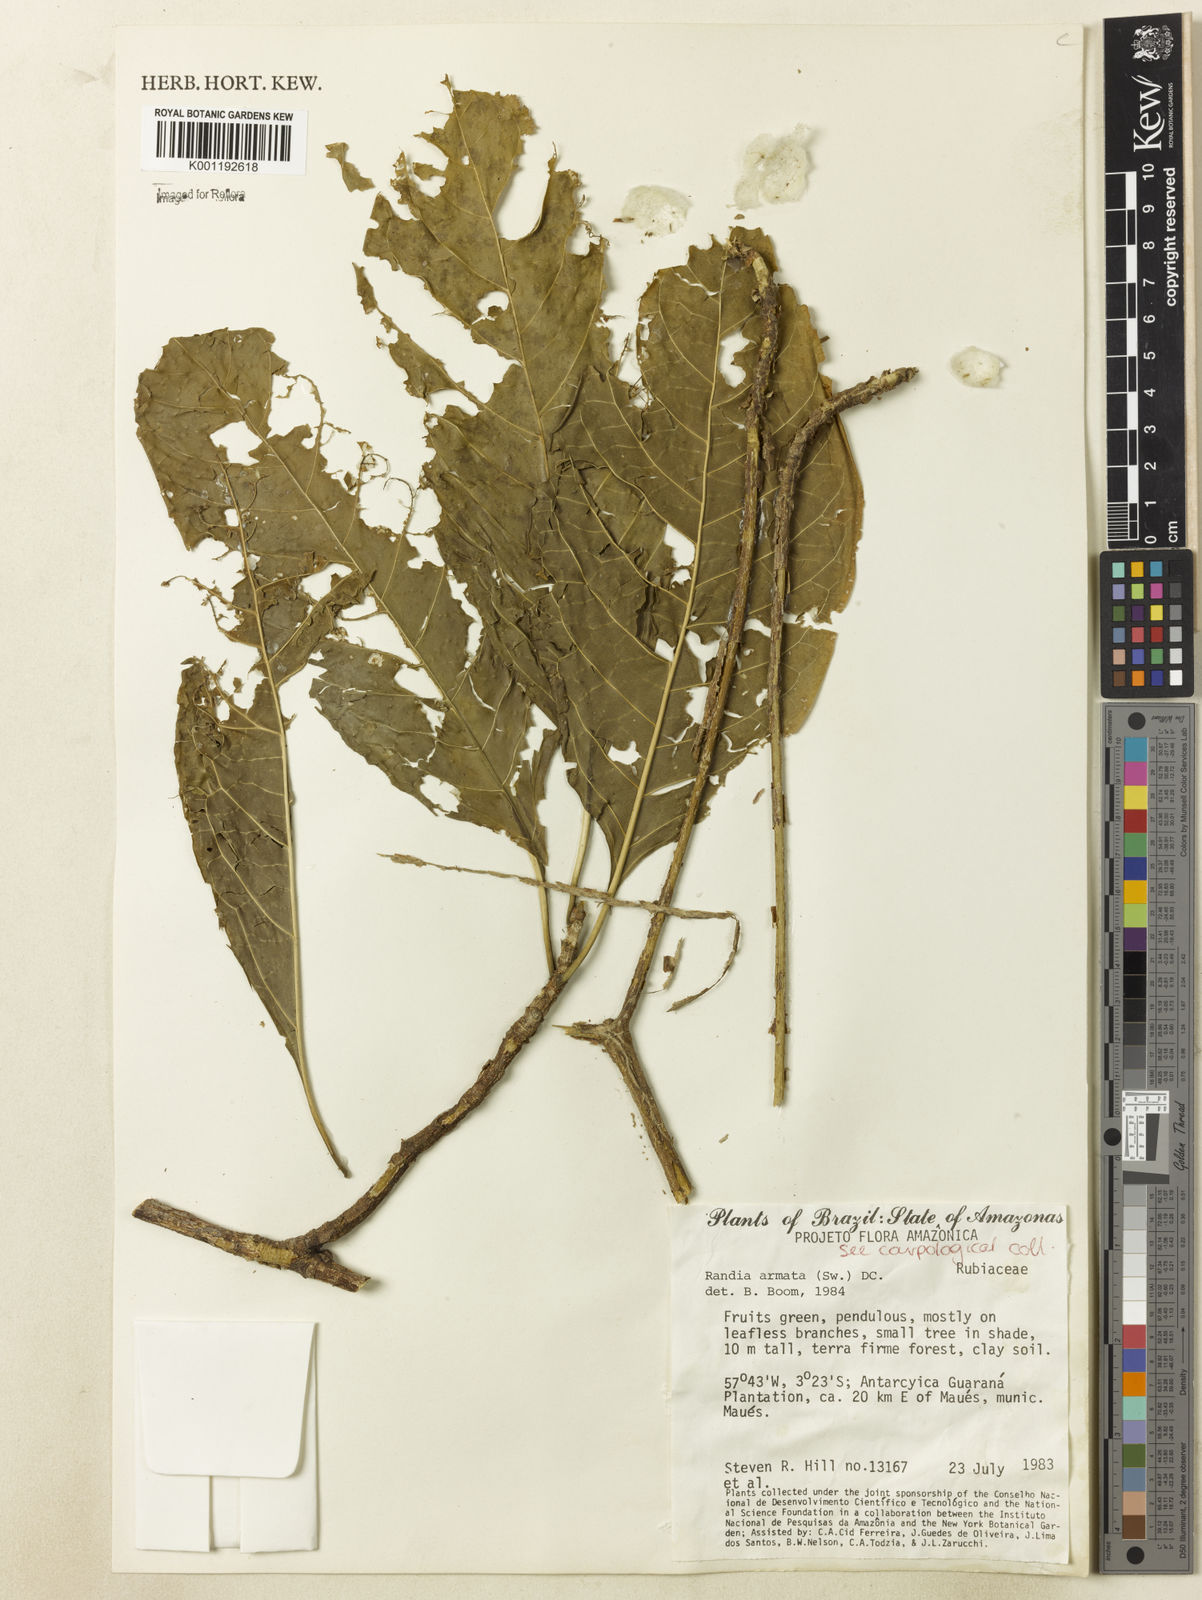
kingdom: Plantae
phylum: Tracheophyta
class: Magnoliopsida
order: Gentianales
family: Rubiaceae
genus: Randia
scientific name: Randia armata
